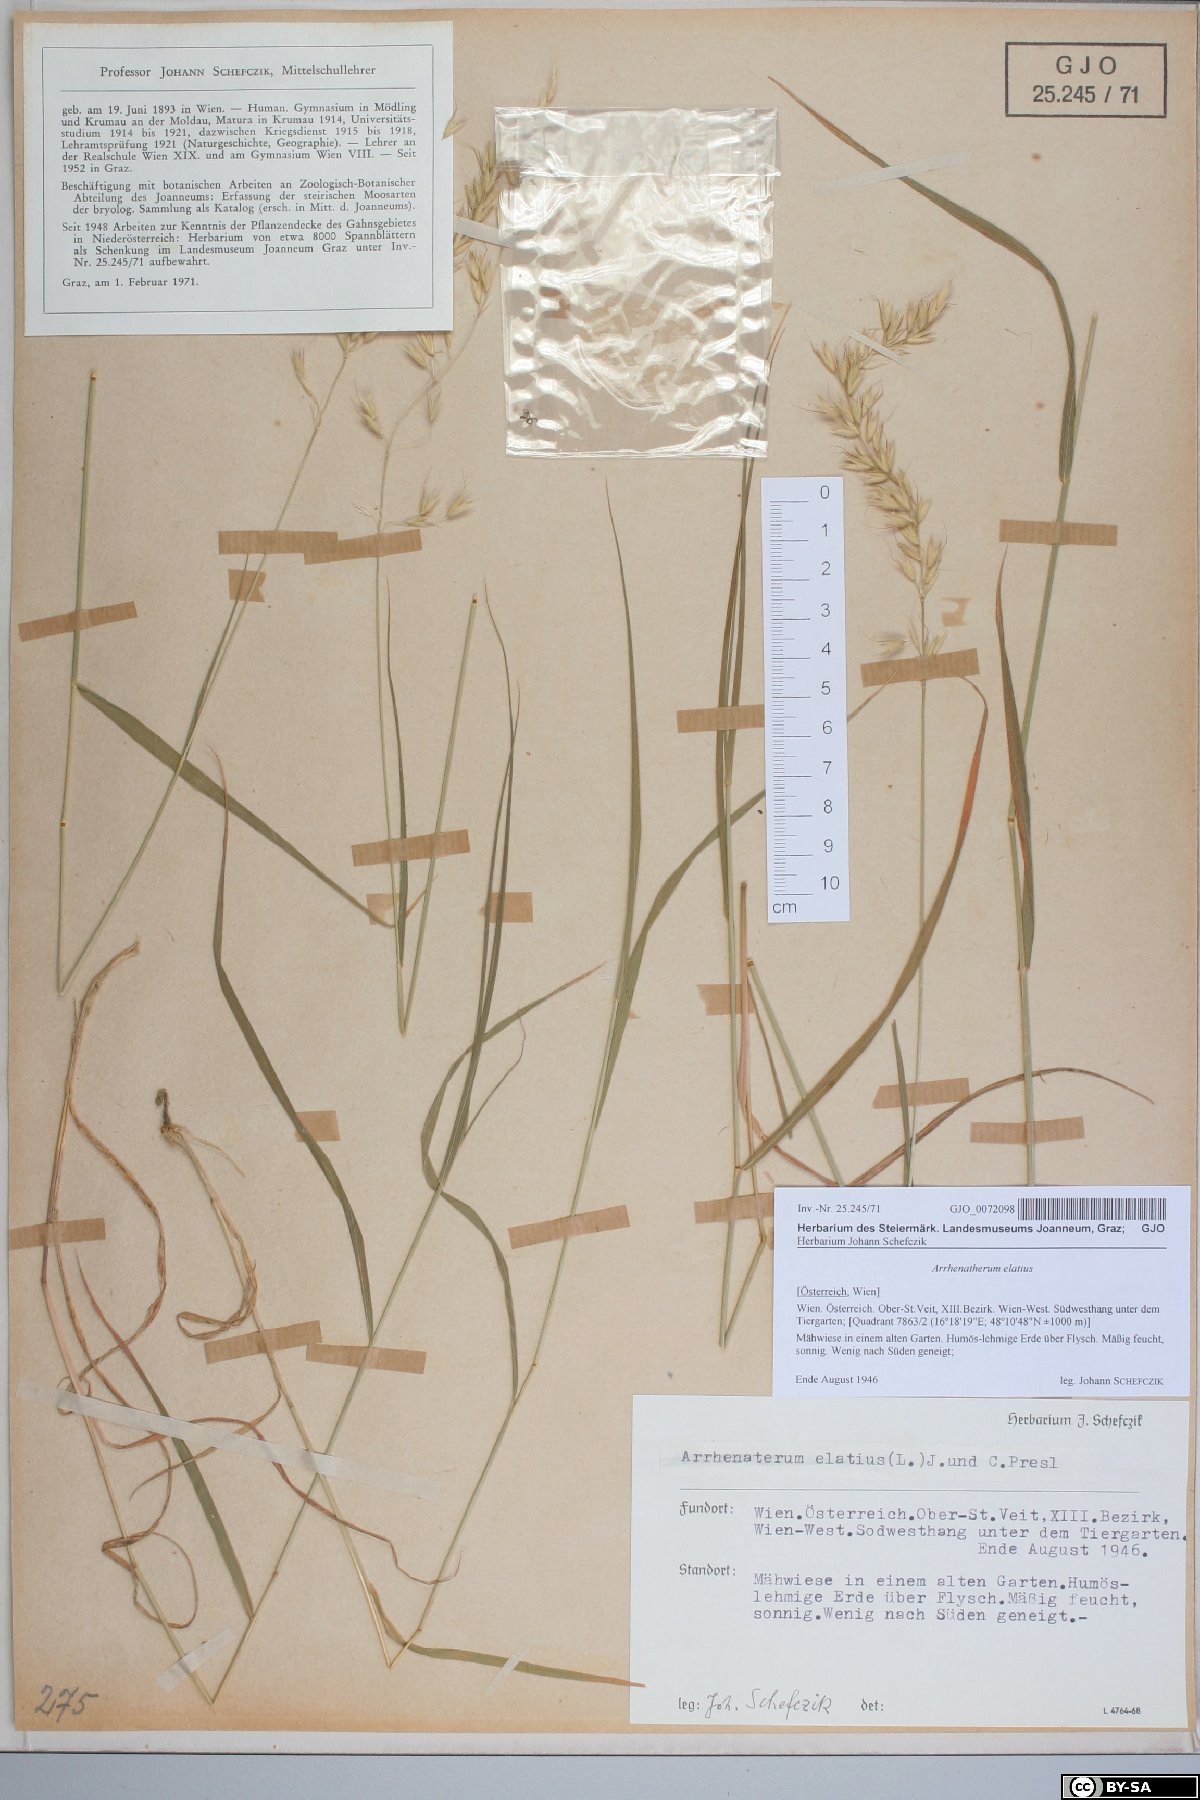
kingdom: Plantae
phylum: Tracheophyta
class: Liliopsida
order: Poales
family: Poaceae
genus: Arrhenatherum
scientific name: Arrhenatherum elatius
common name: Tall oatgrass
